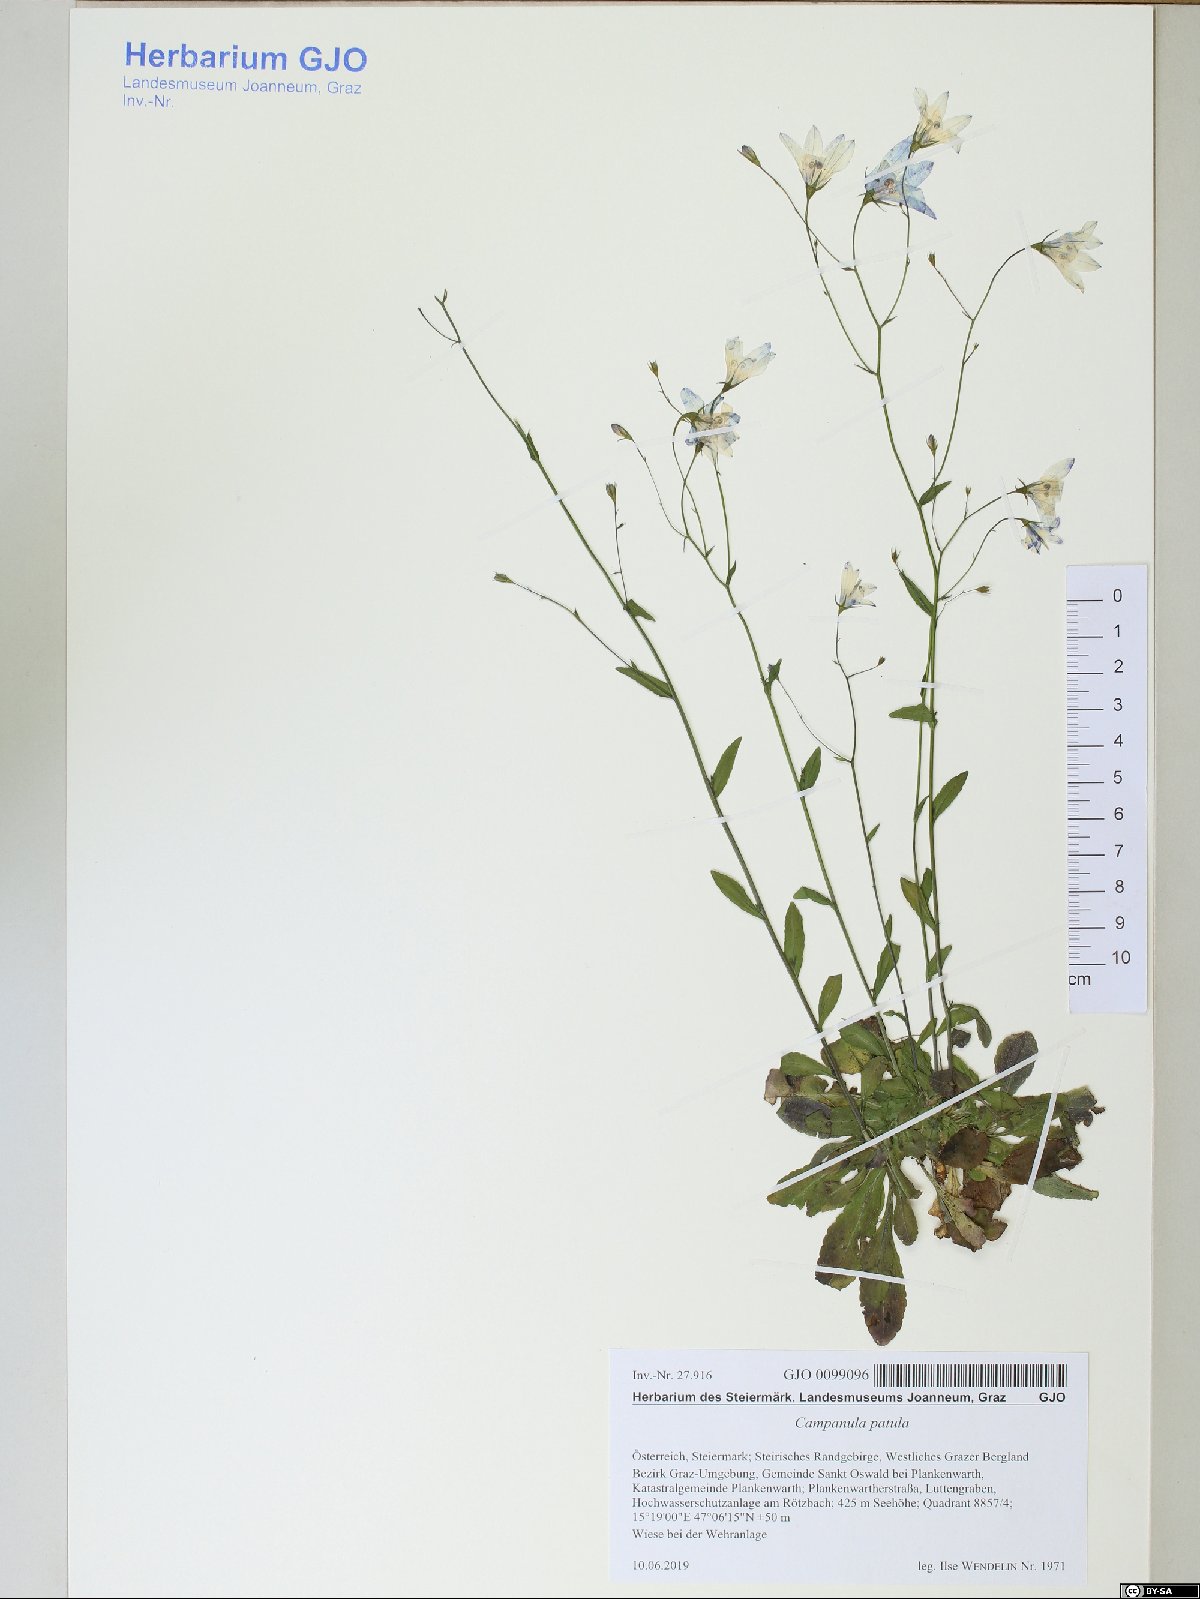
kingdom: Plantae
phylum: Tracheophyta
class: Magnoliopsida
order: Asterales
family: Campanulaceae
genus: Campanula
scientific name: Campanula patula
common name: Spreading bellflower
